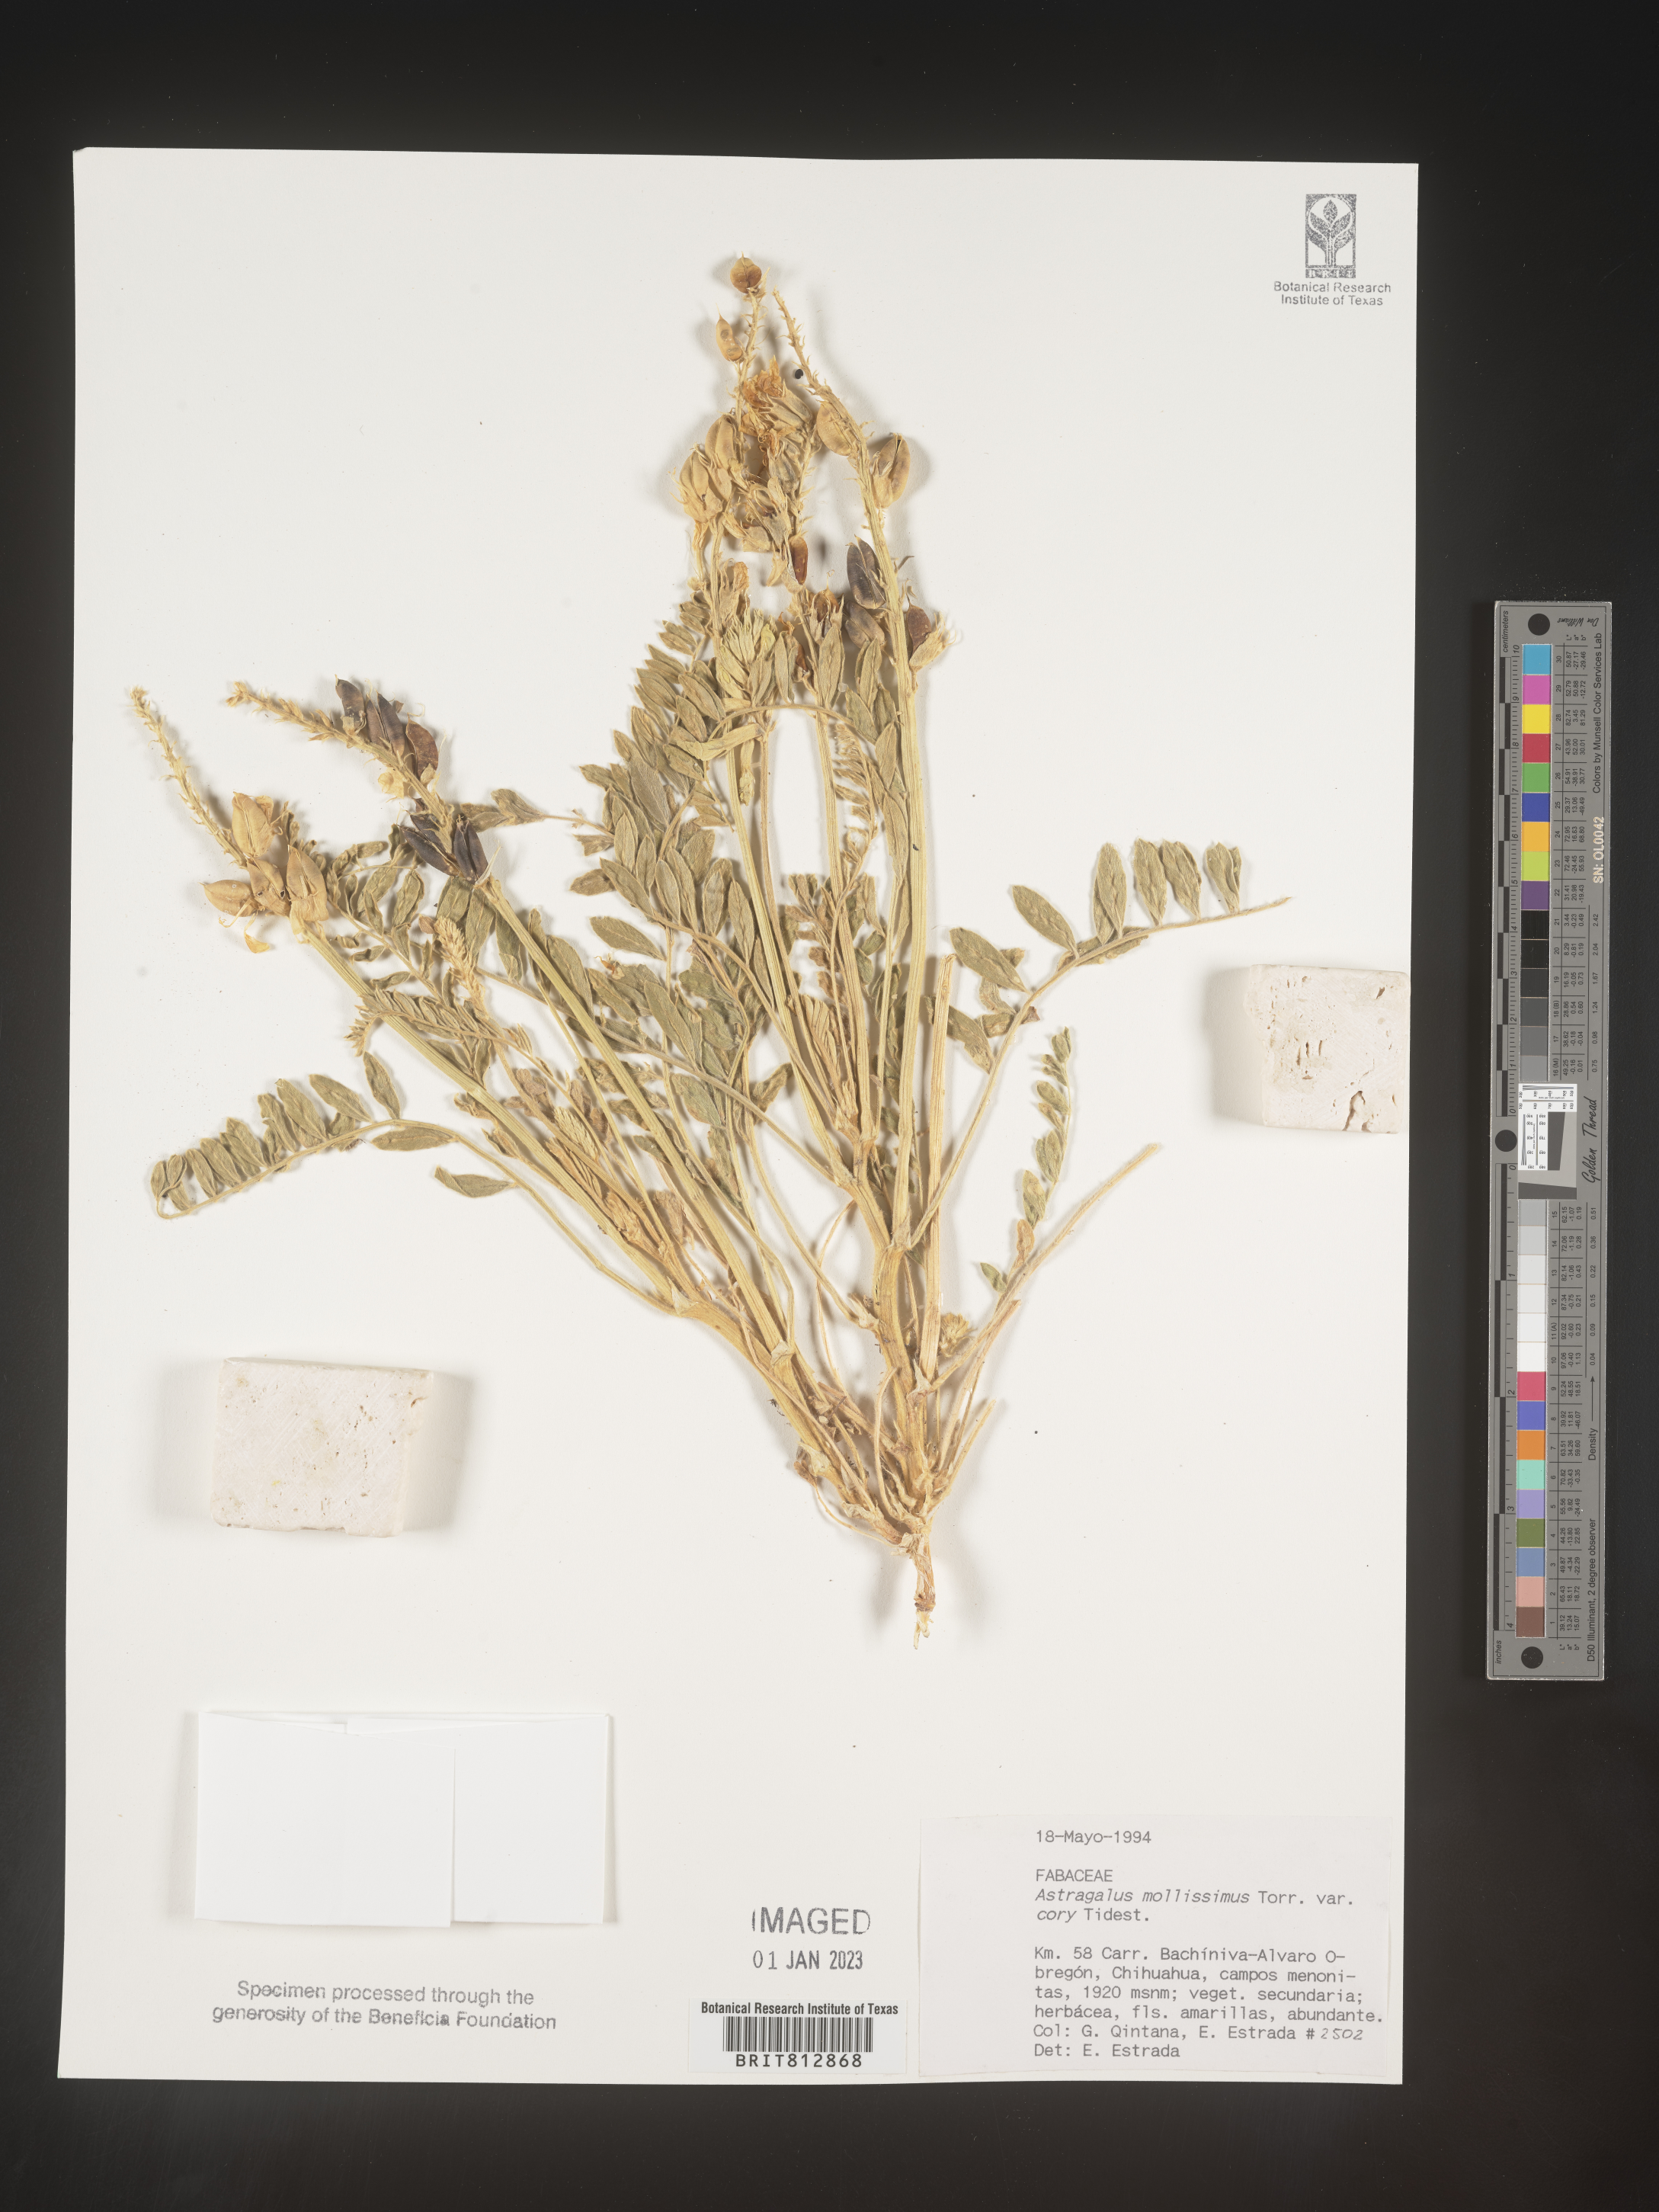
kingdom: Plantae
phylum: Tracheophyta
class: Magnoliopsida
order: Fabales
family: Fabaceae
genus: Astragalus
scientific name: Astragalus
